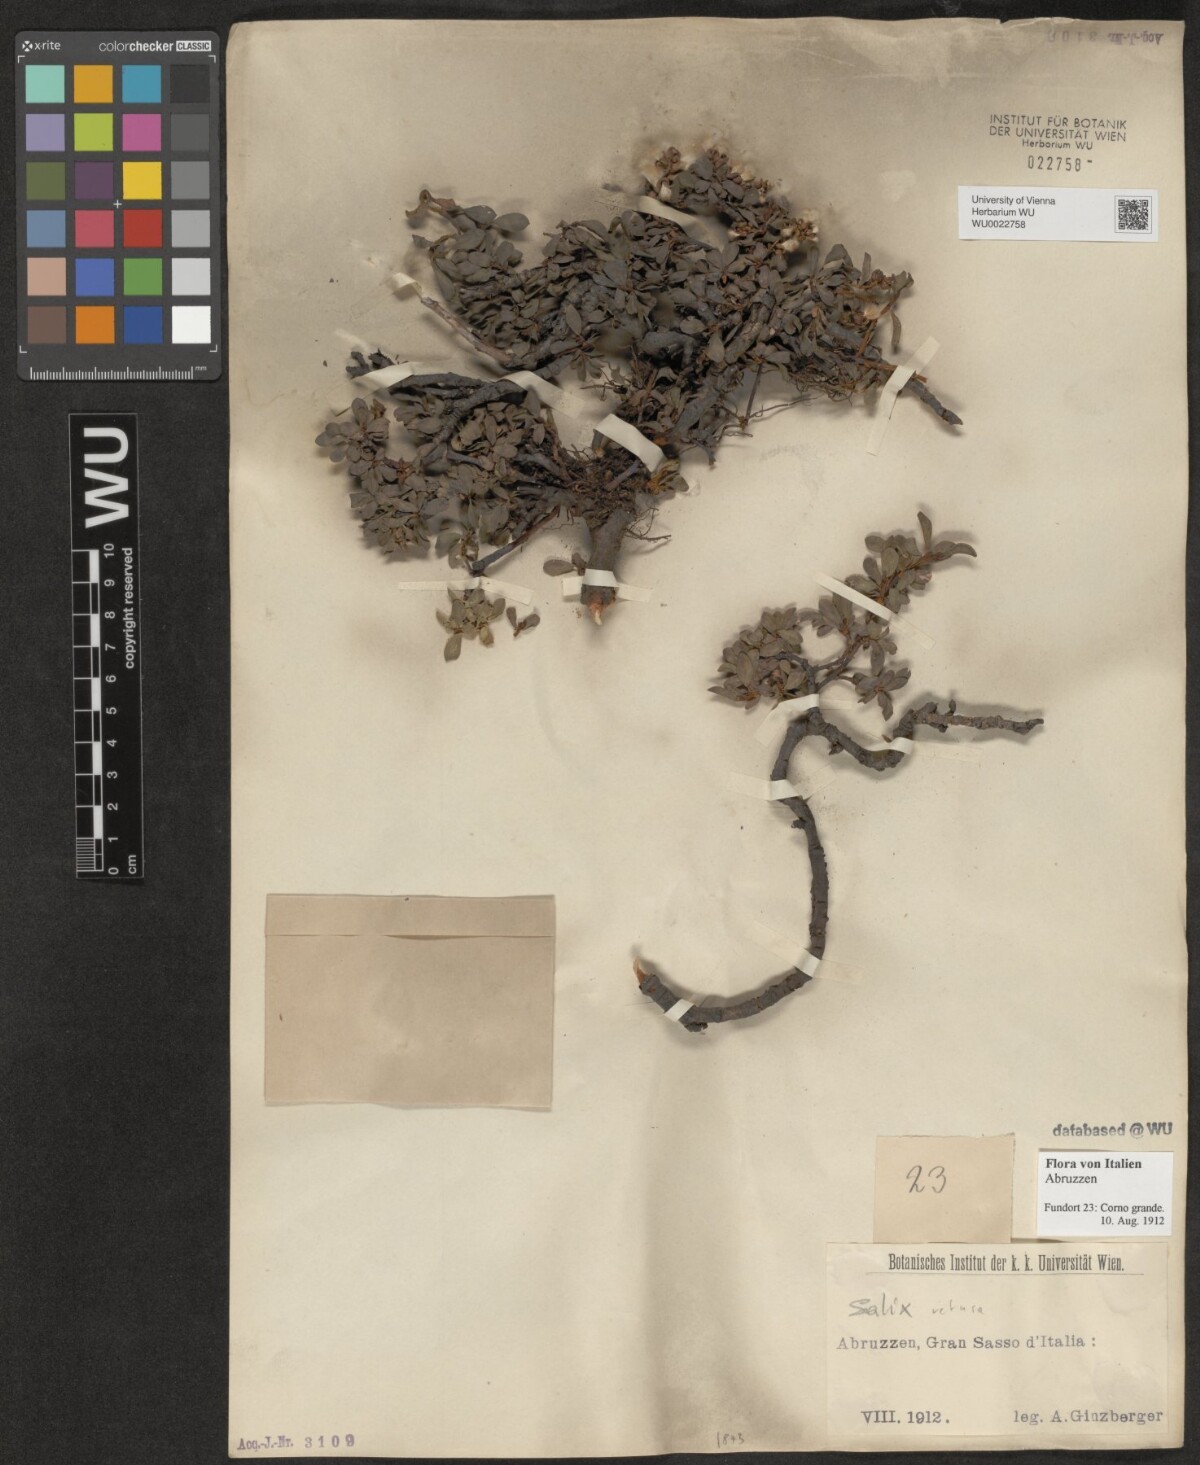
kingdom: Plantae
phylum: Tracheophyta
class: Magnoliopsida
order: Malpighiales
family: Salicaceae
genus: Salix
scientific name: Salix retusa
